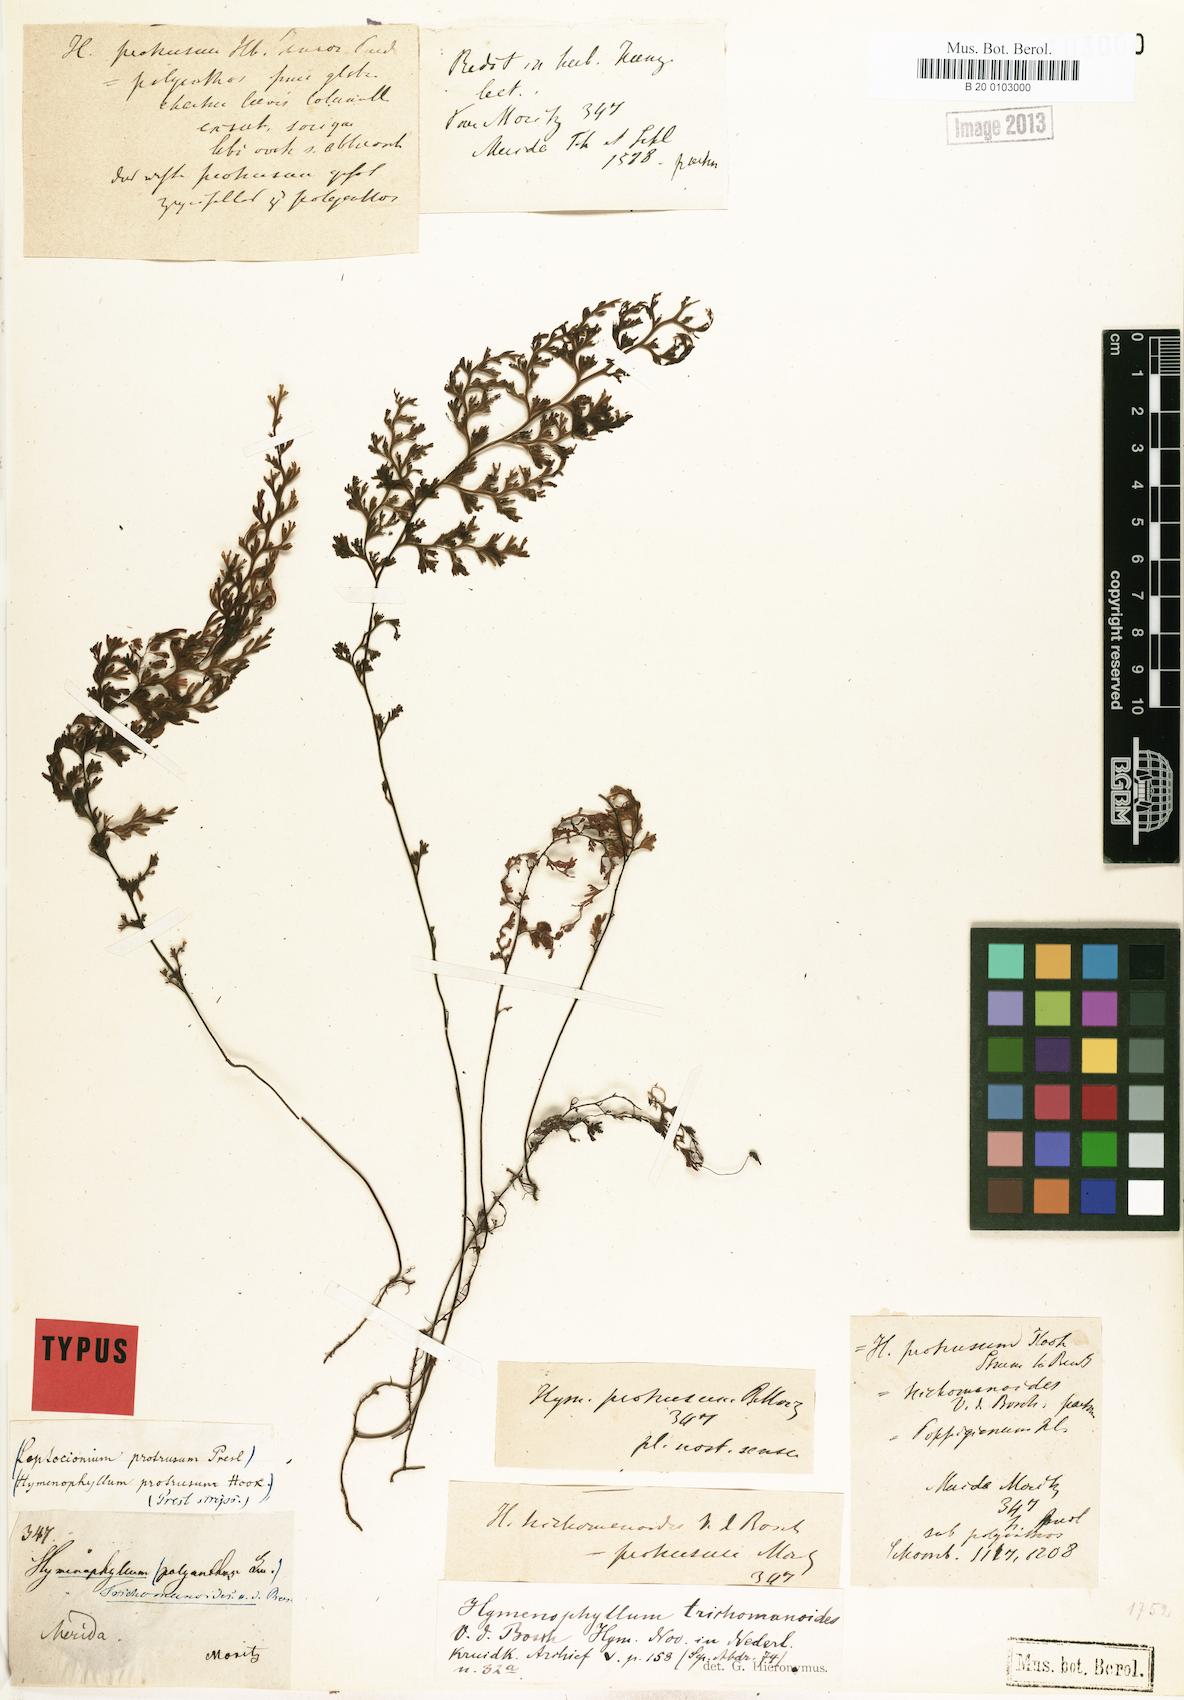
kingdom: Plantae
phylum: Tracheophyta
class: Polypodiopsida
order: Hymenophyllales
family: Hymenophyllaceae
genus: Hymenophyllum
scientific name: Hymenophyllum trichomanoides
